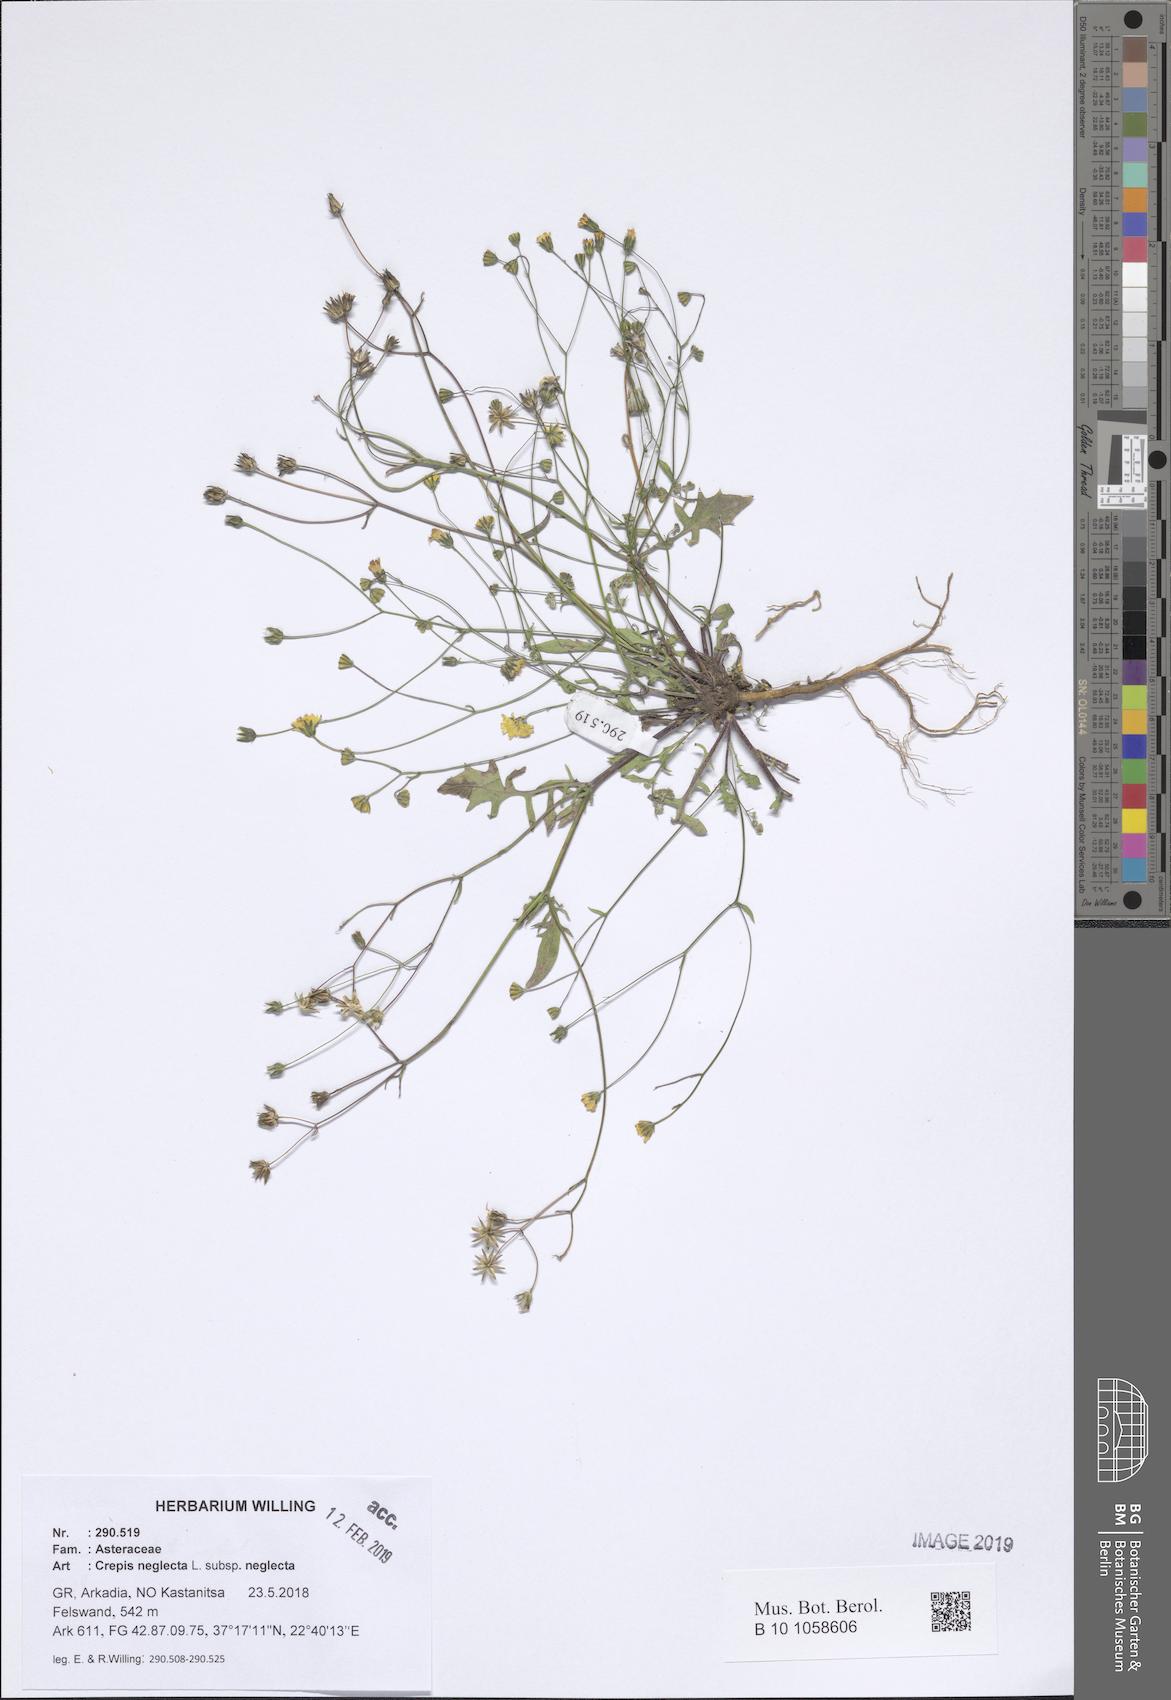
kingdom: Plantae
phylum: Tracheophyta
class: Magnoliopsida
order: Asterales
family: Asteraceae
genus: Crepis
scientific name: Crepis neglecta
